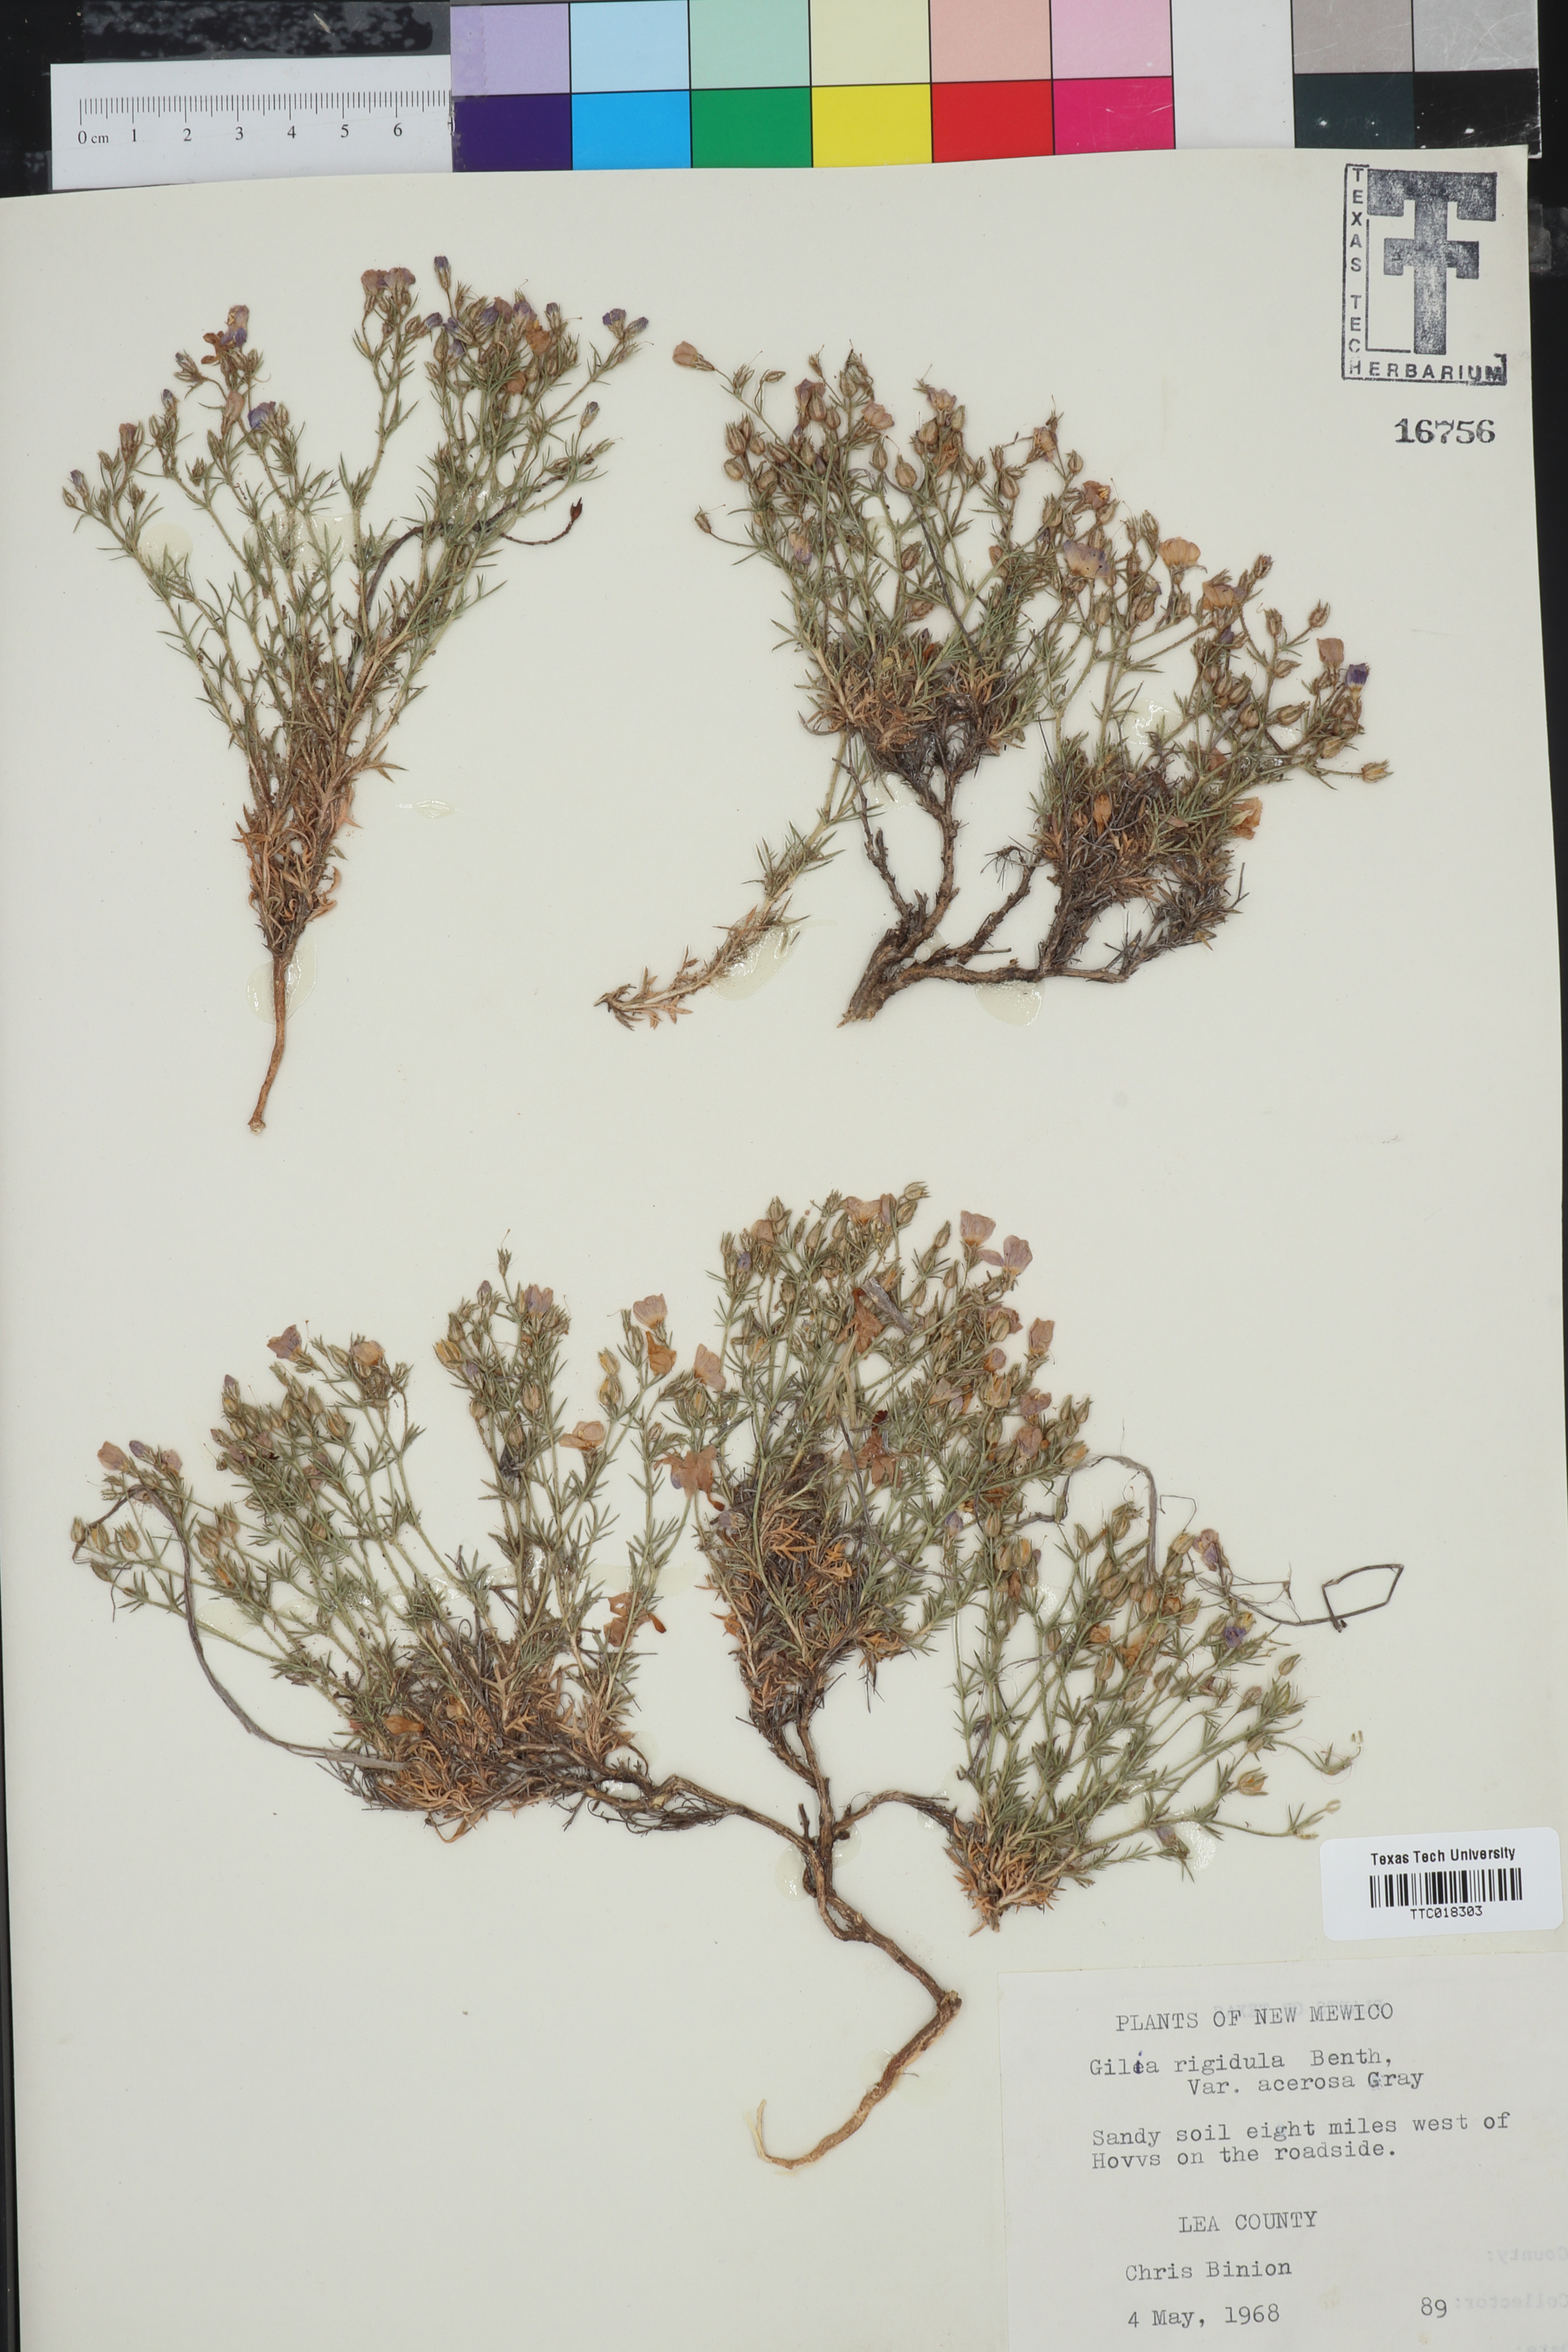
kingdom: Plantae
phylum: Tracheophyta
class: Magnoliopsida
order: Ericales
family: Polemoniaceae
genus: Giliastrum
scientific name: Giliastrum acerosum
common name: Bluebowls
